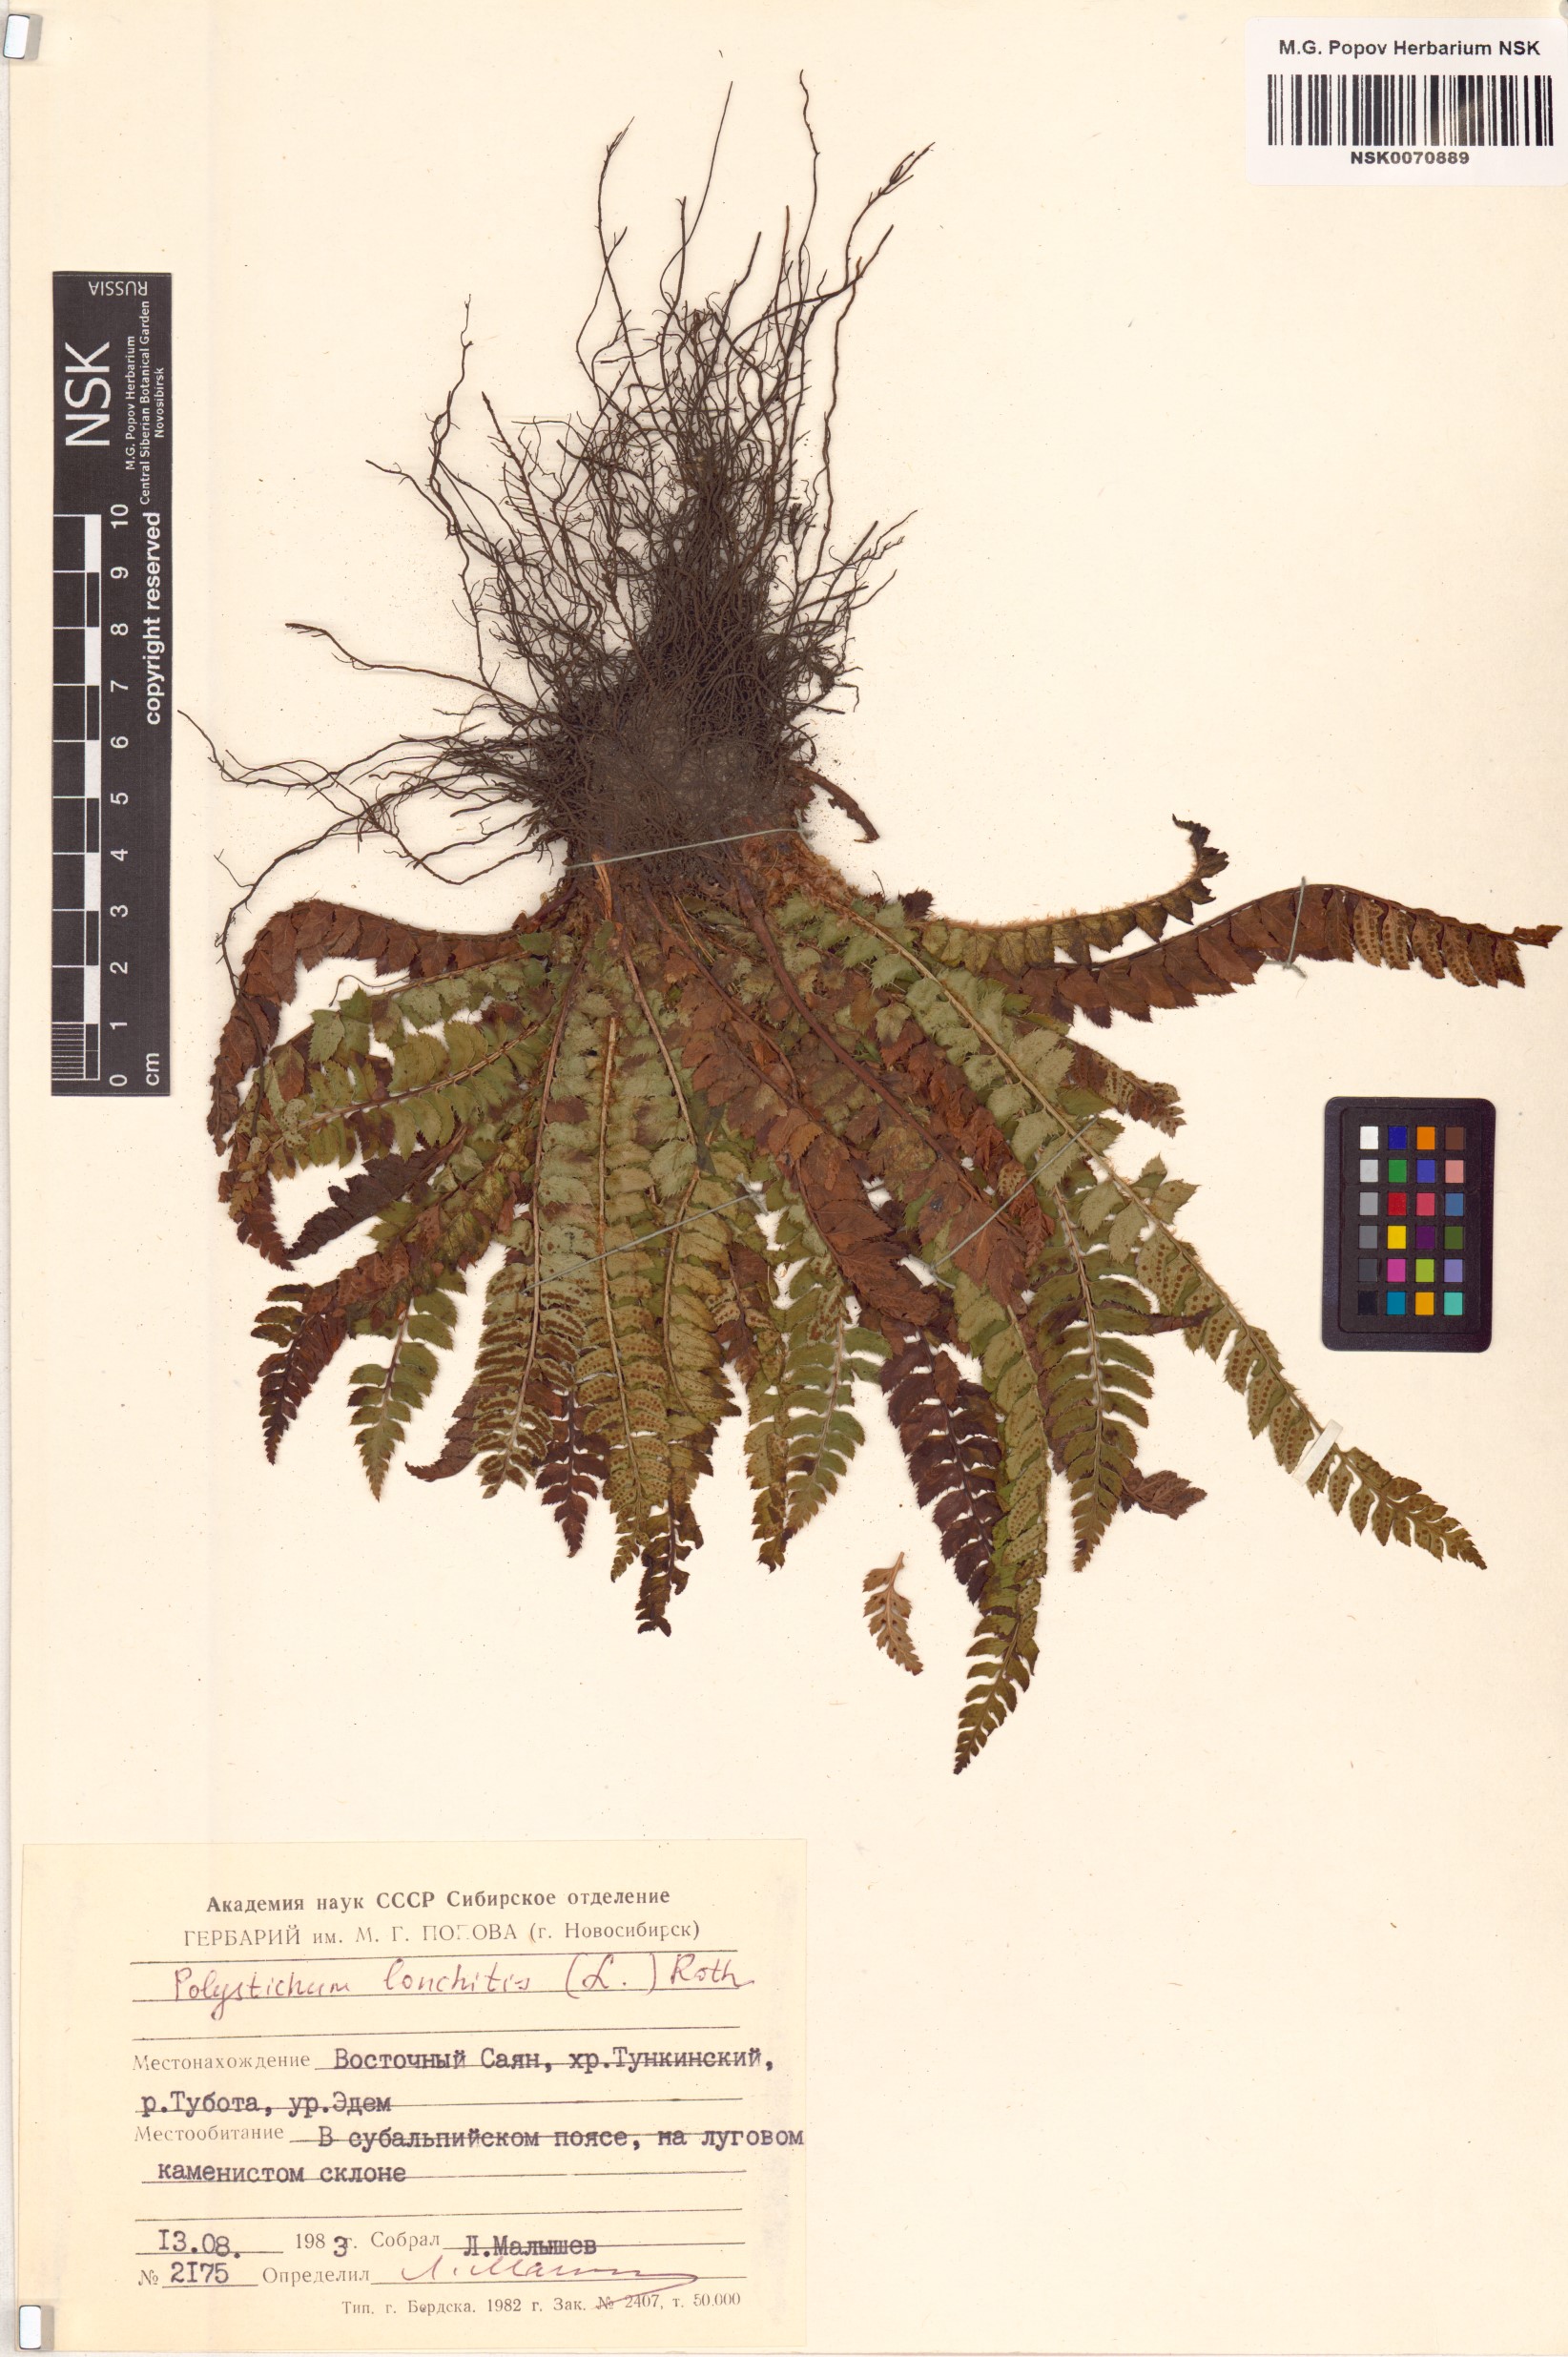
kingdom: Plantae
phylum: Tracheophyta
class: Polypodiopsida
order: Polypodiales
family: Dryopteridaceae
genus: Polystichum
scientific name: Polystichum lonchitis
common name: Holly fern
